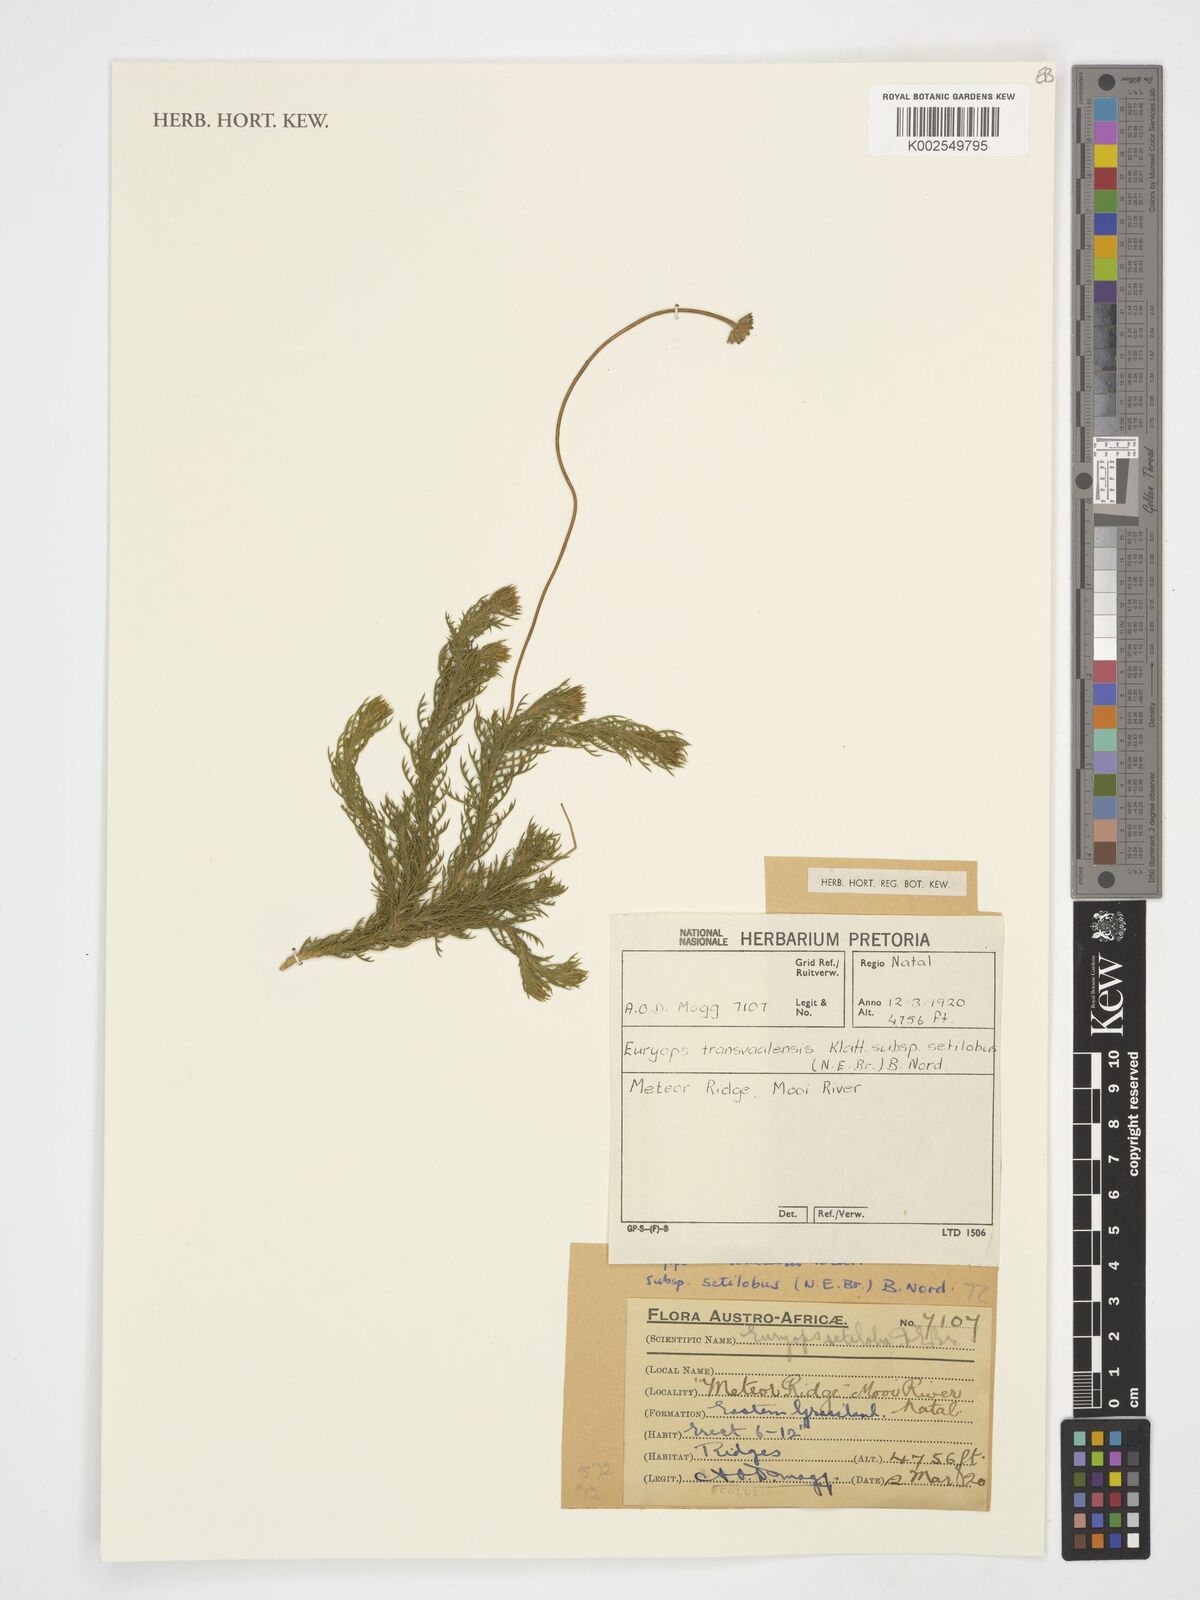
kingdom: Plantae
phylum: Tracheophyta
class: Magnoliopsida
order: Asterales
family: Asteraceae
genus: Euryops
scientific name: Euryops transvaalensis
